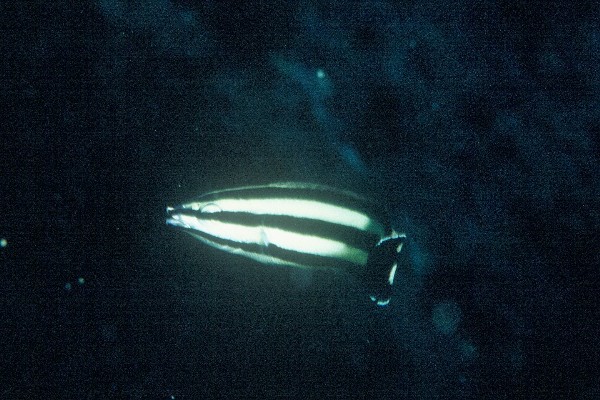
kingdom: Animalia
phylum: Chordata
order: Perciformes
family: Labridae
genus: Labropsis
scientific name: Labropsis australis
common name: Southern tubelip
